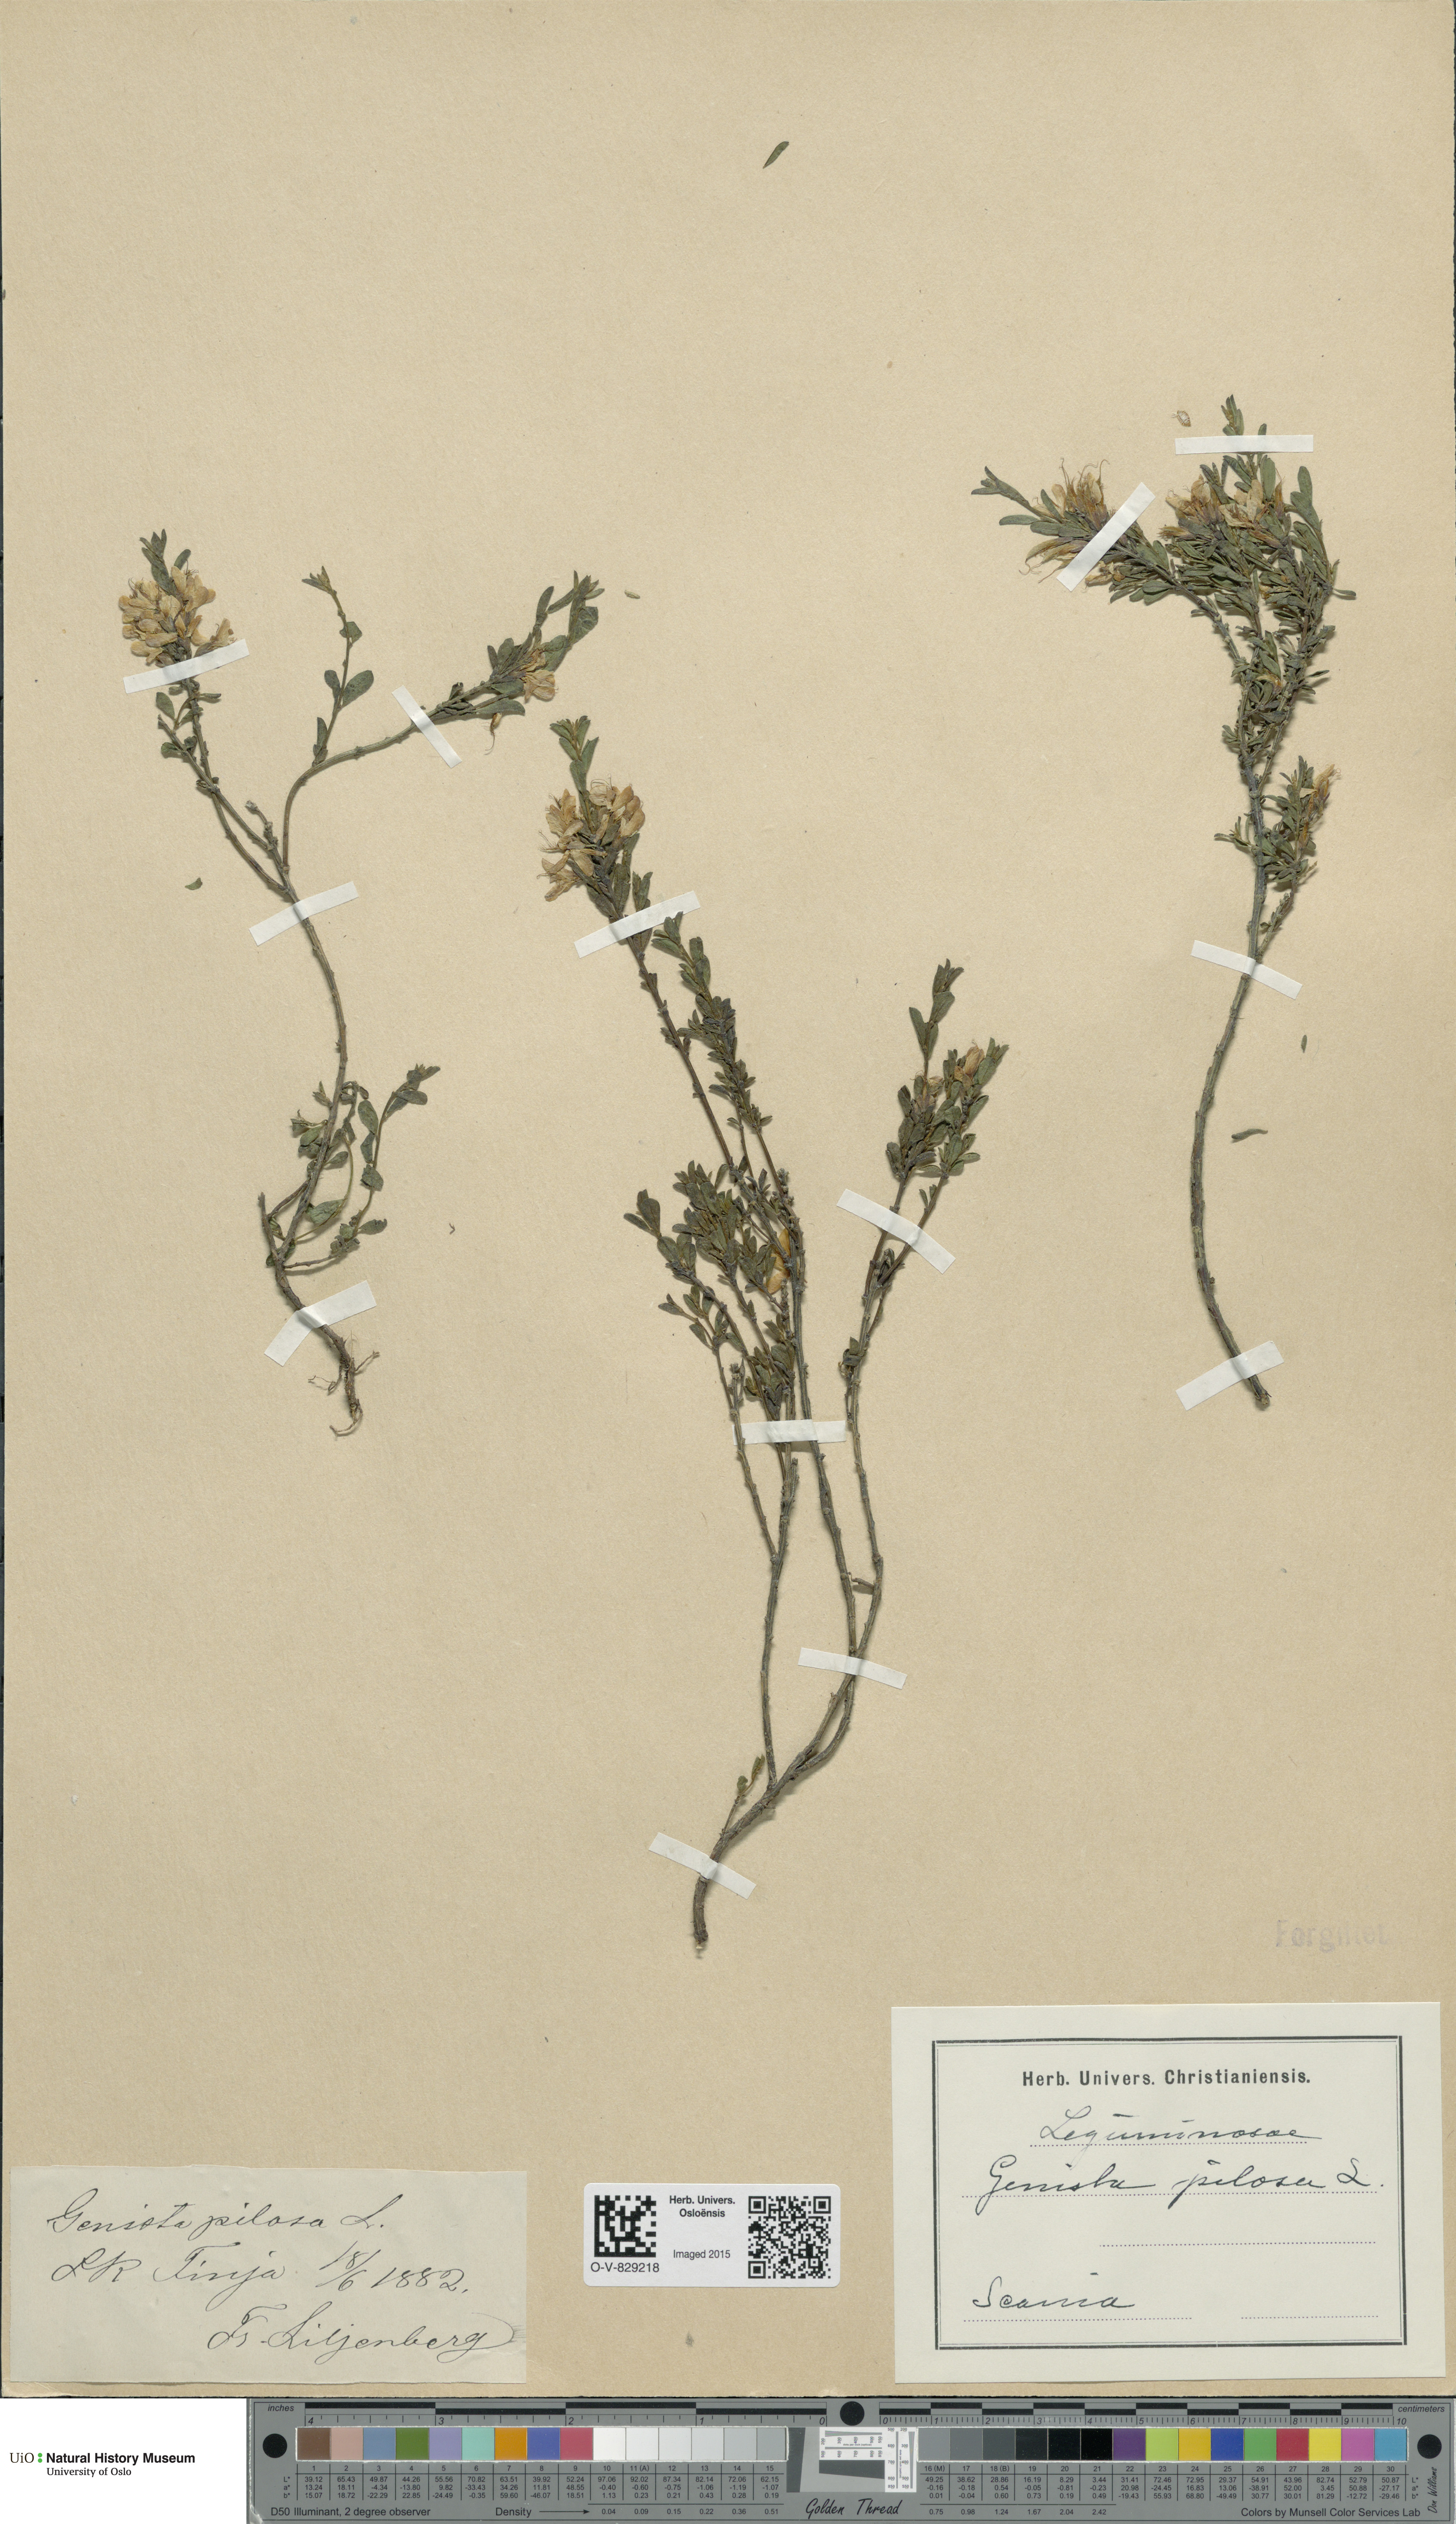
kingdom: Plantae
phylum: Tracheophyta
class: Magnoliopsida
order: Fabales
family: Fabaceae
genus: Genista
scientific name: Genista pilosa
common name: Hairy greenweed
